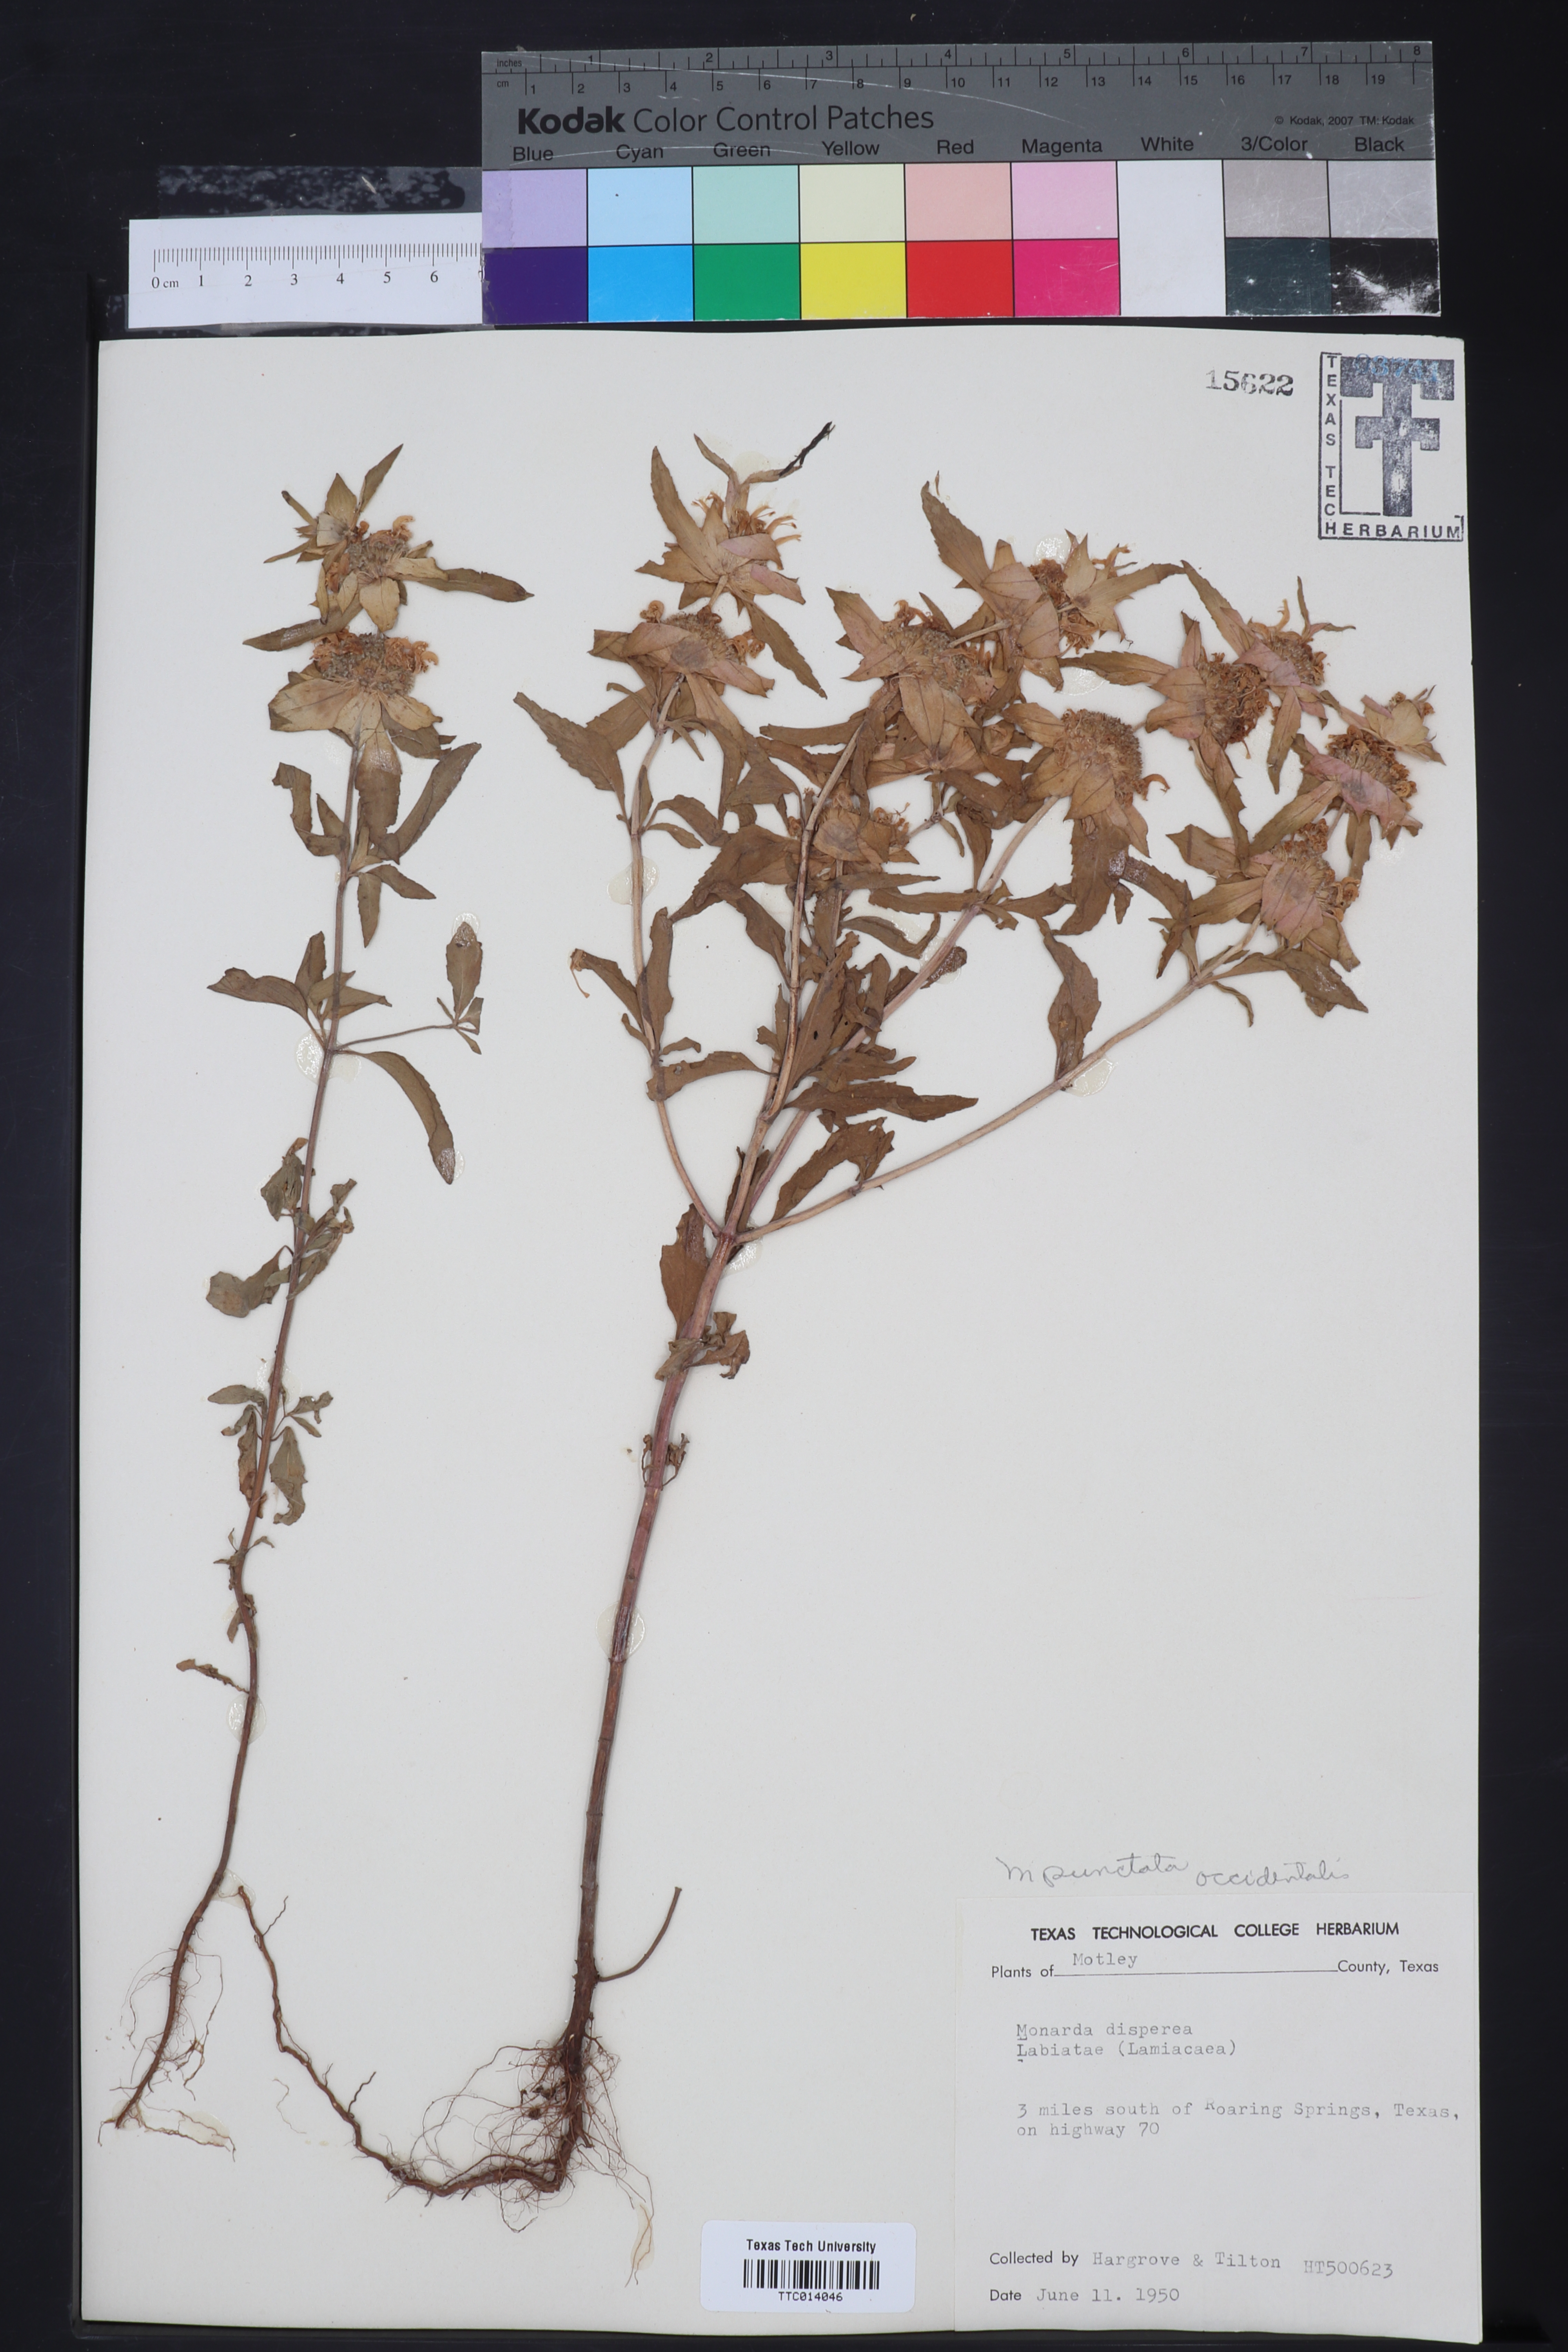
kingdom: Plantae
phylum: Tracheophyta
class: Magnoliopsida
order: Lamiales
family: Lamiaceae
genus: Monarda
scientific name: Monarda punctata
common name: Dotted monarda
